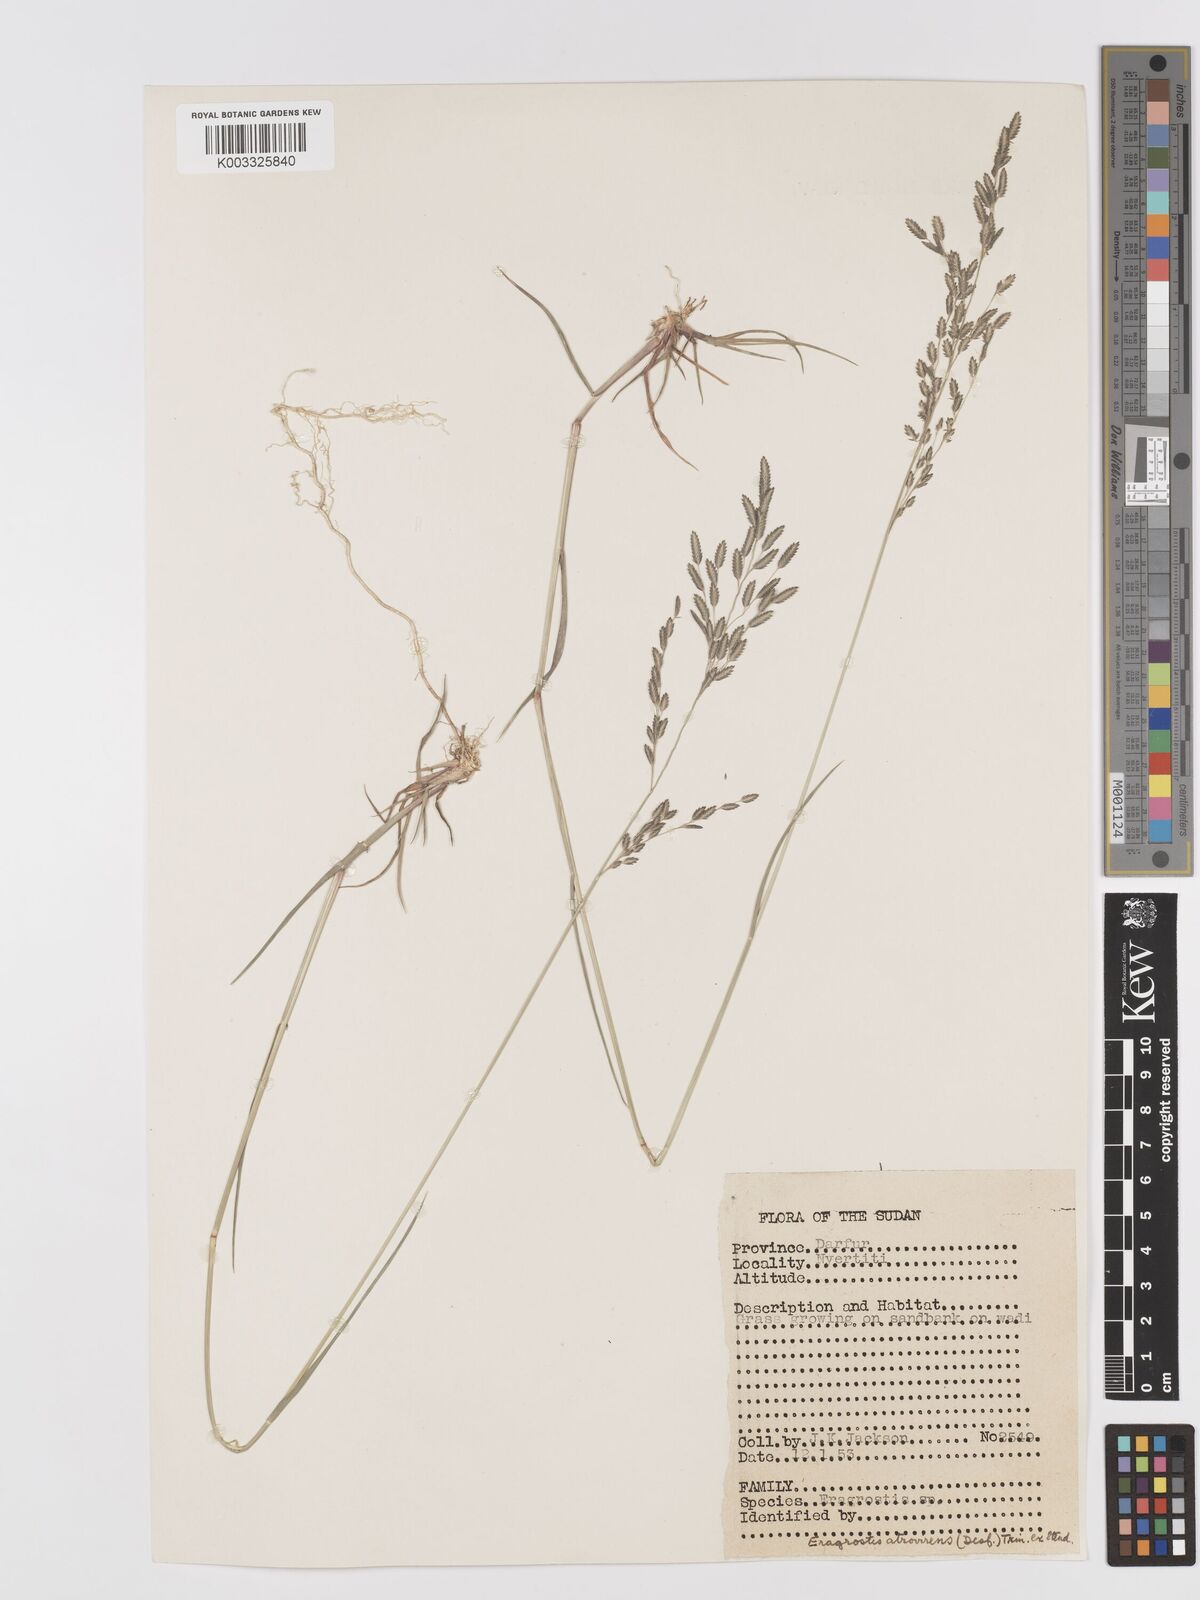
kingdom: Plantae
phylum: Tracheophyta
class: Liliopsida
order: Poales
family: Poaceae
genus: Eragrostis
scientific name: Eragrostis atrovirens
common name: Thalia lovegrass
